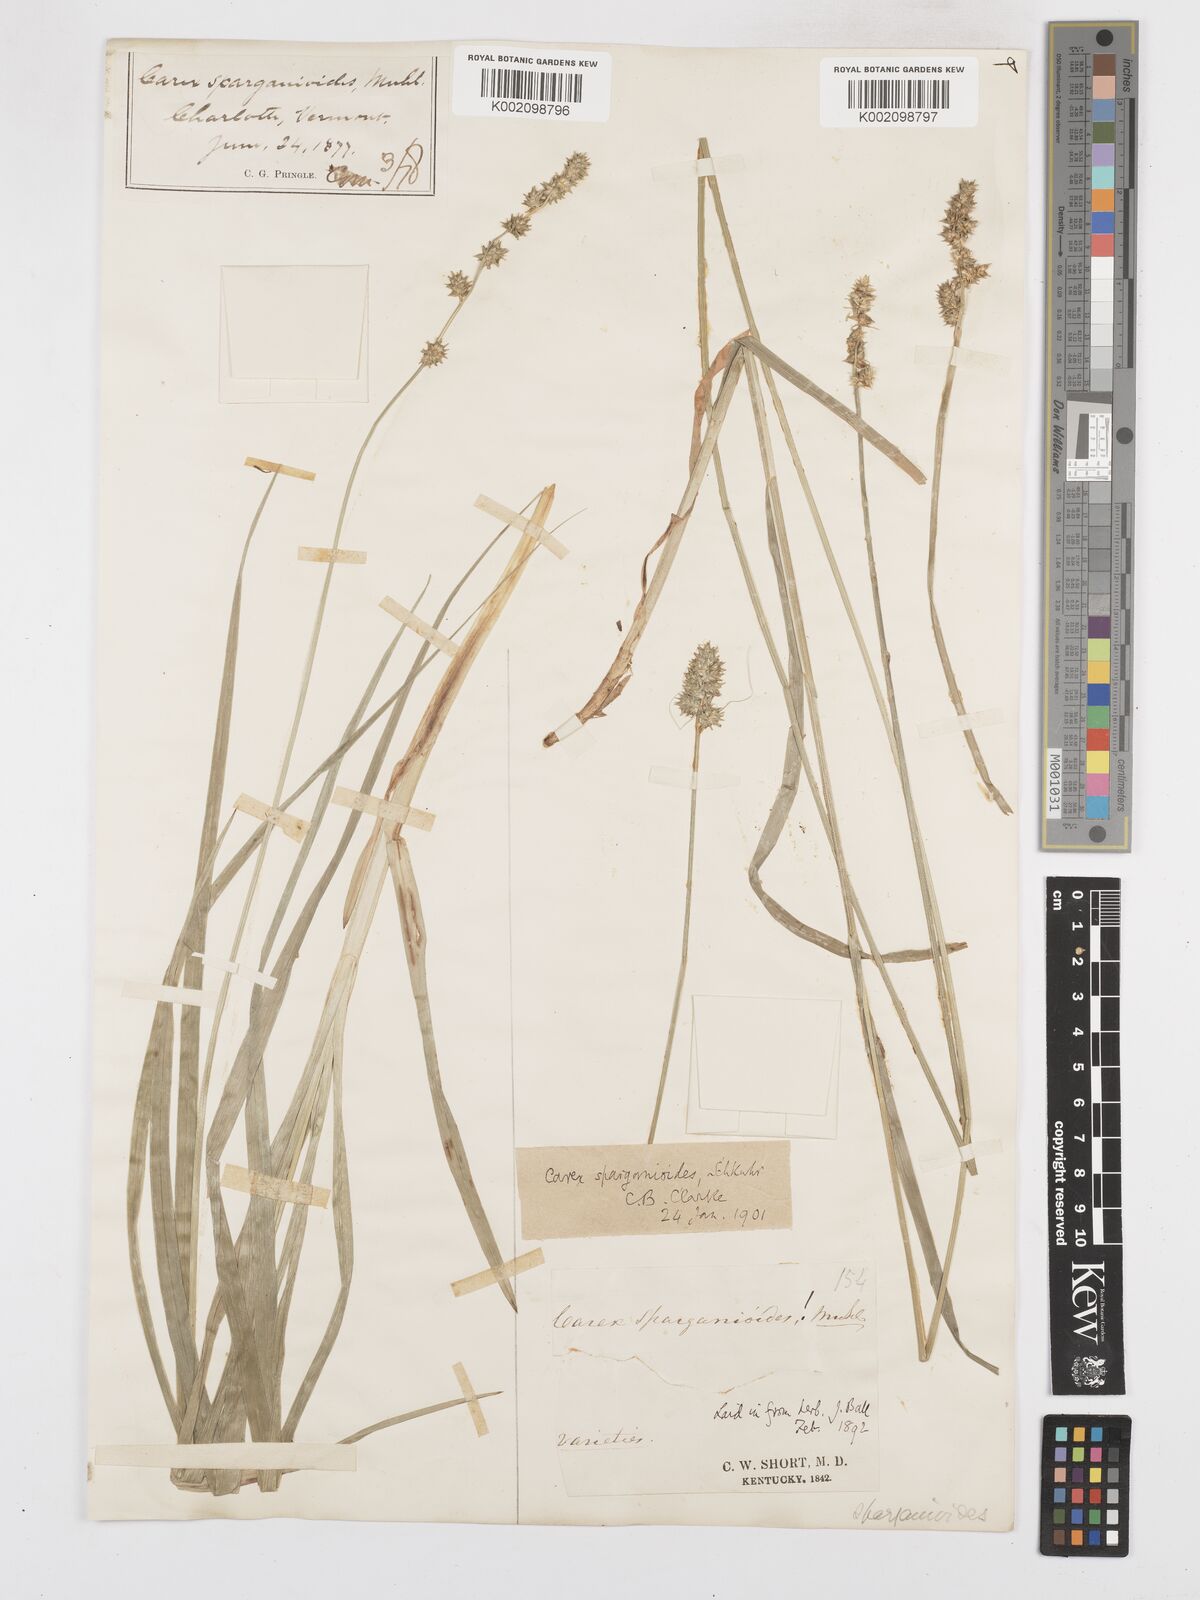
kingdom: Plantae
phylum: Tracheophyta
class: Liliopsida
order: Poales
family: Cyperaceae
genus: Carex
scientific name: Carex sparganioides
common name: Burreed sedge
